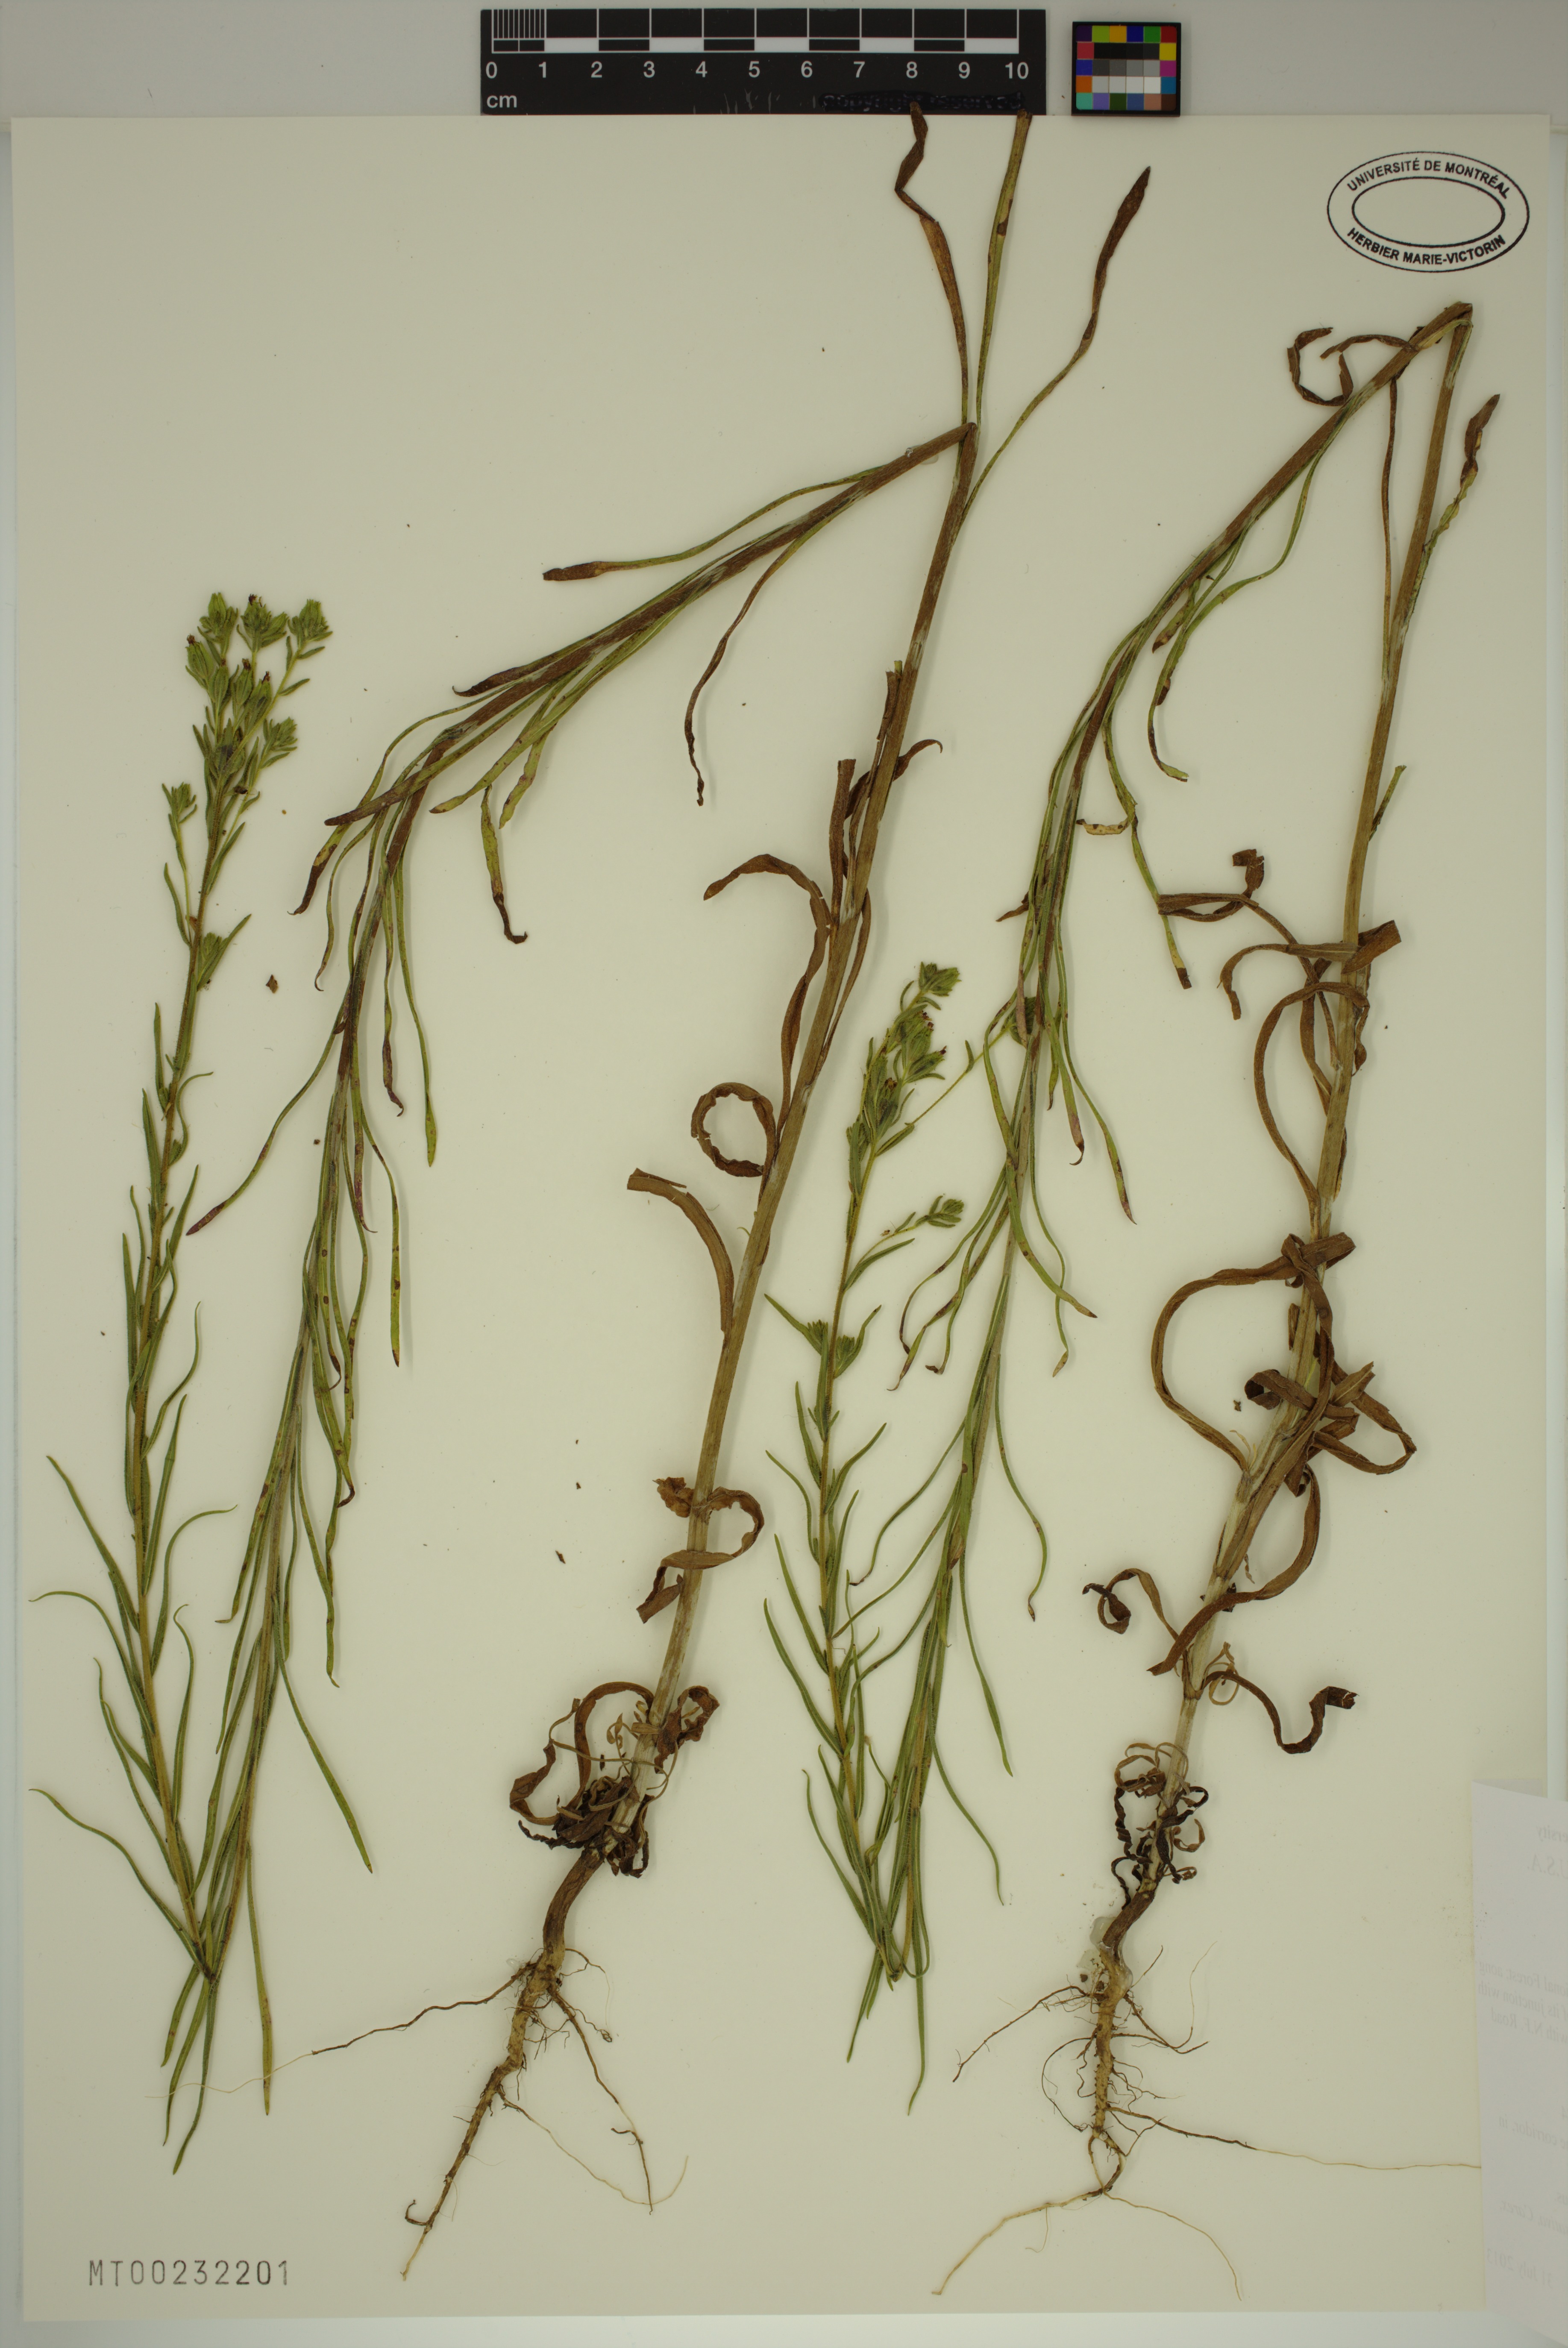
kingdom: Plantae
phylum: Tracheophyta
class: Magnoliopsida
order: Asterales
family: Asteraceae
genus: Madia
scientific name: Madia glomerata
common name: Mountain tarweed
